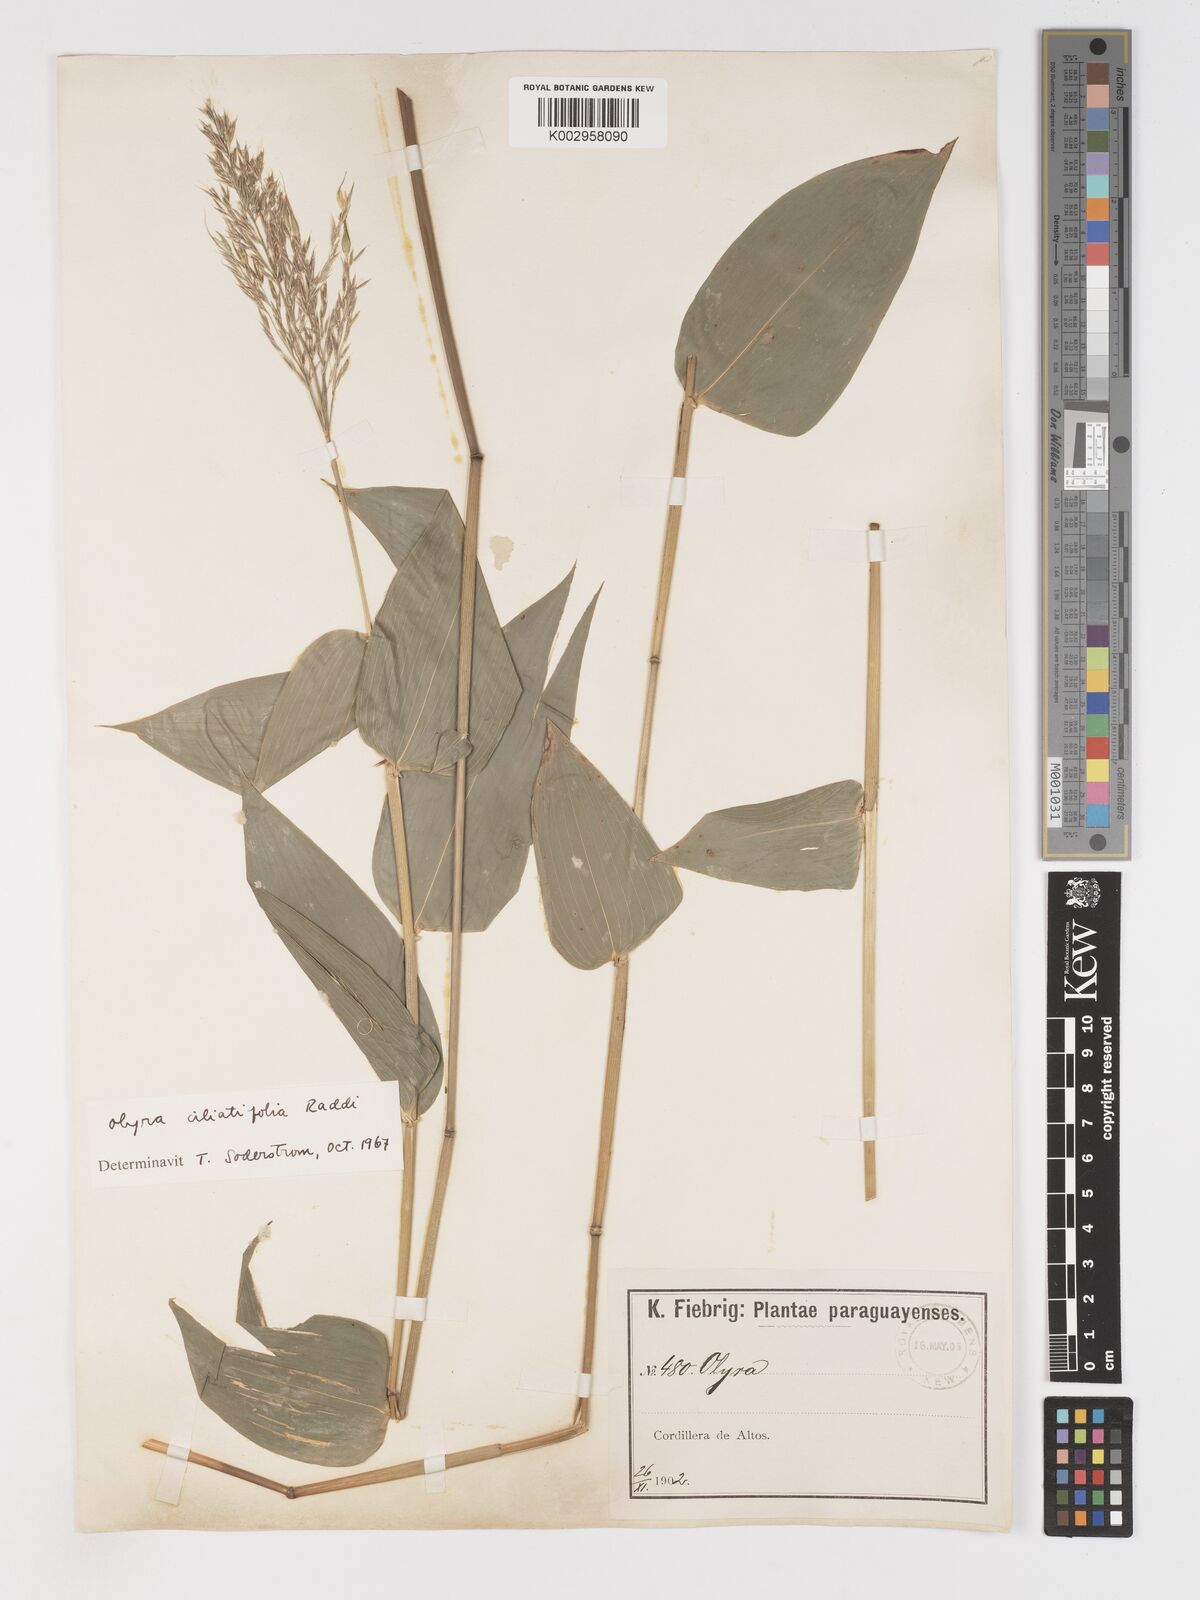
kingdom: Plantae
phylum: Tracheophyta
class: Liliopsida
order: Poales
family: Poaceae
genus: Olyra
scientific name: Olyra ciliatifolia
